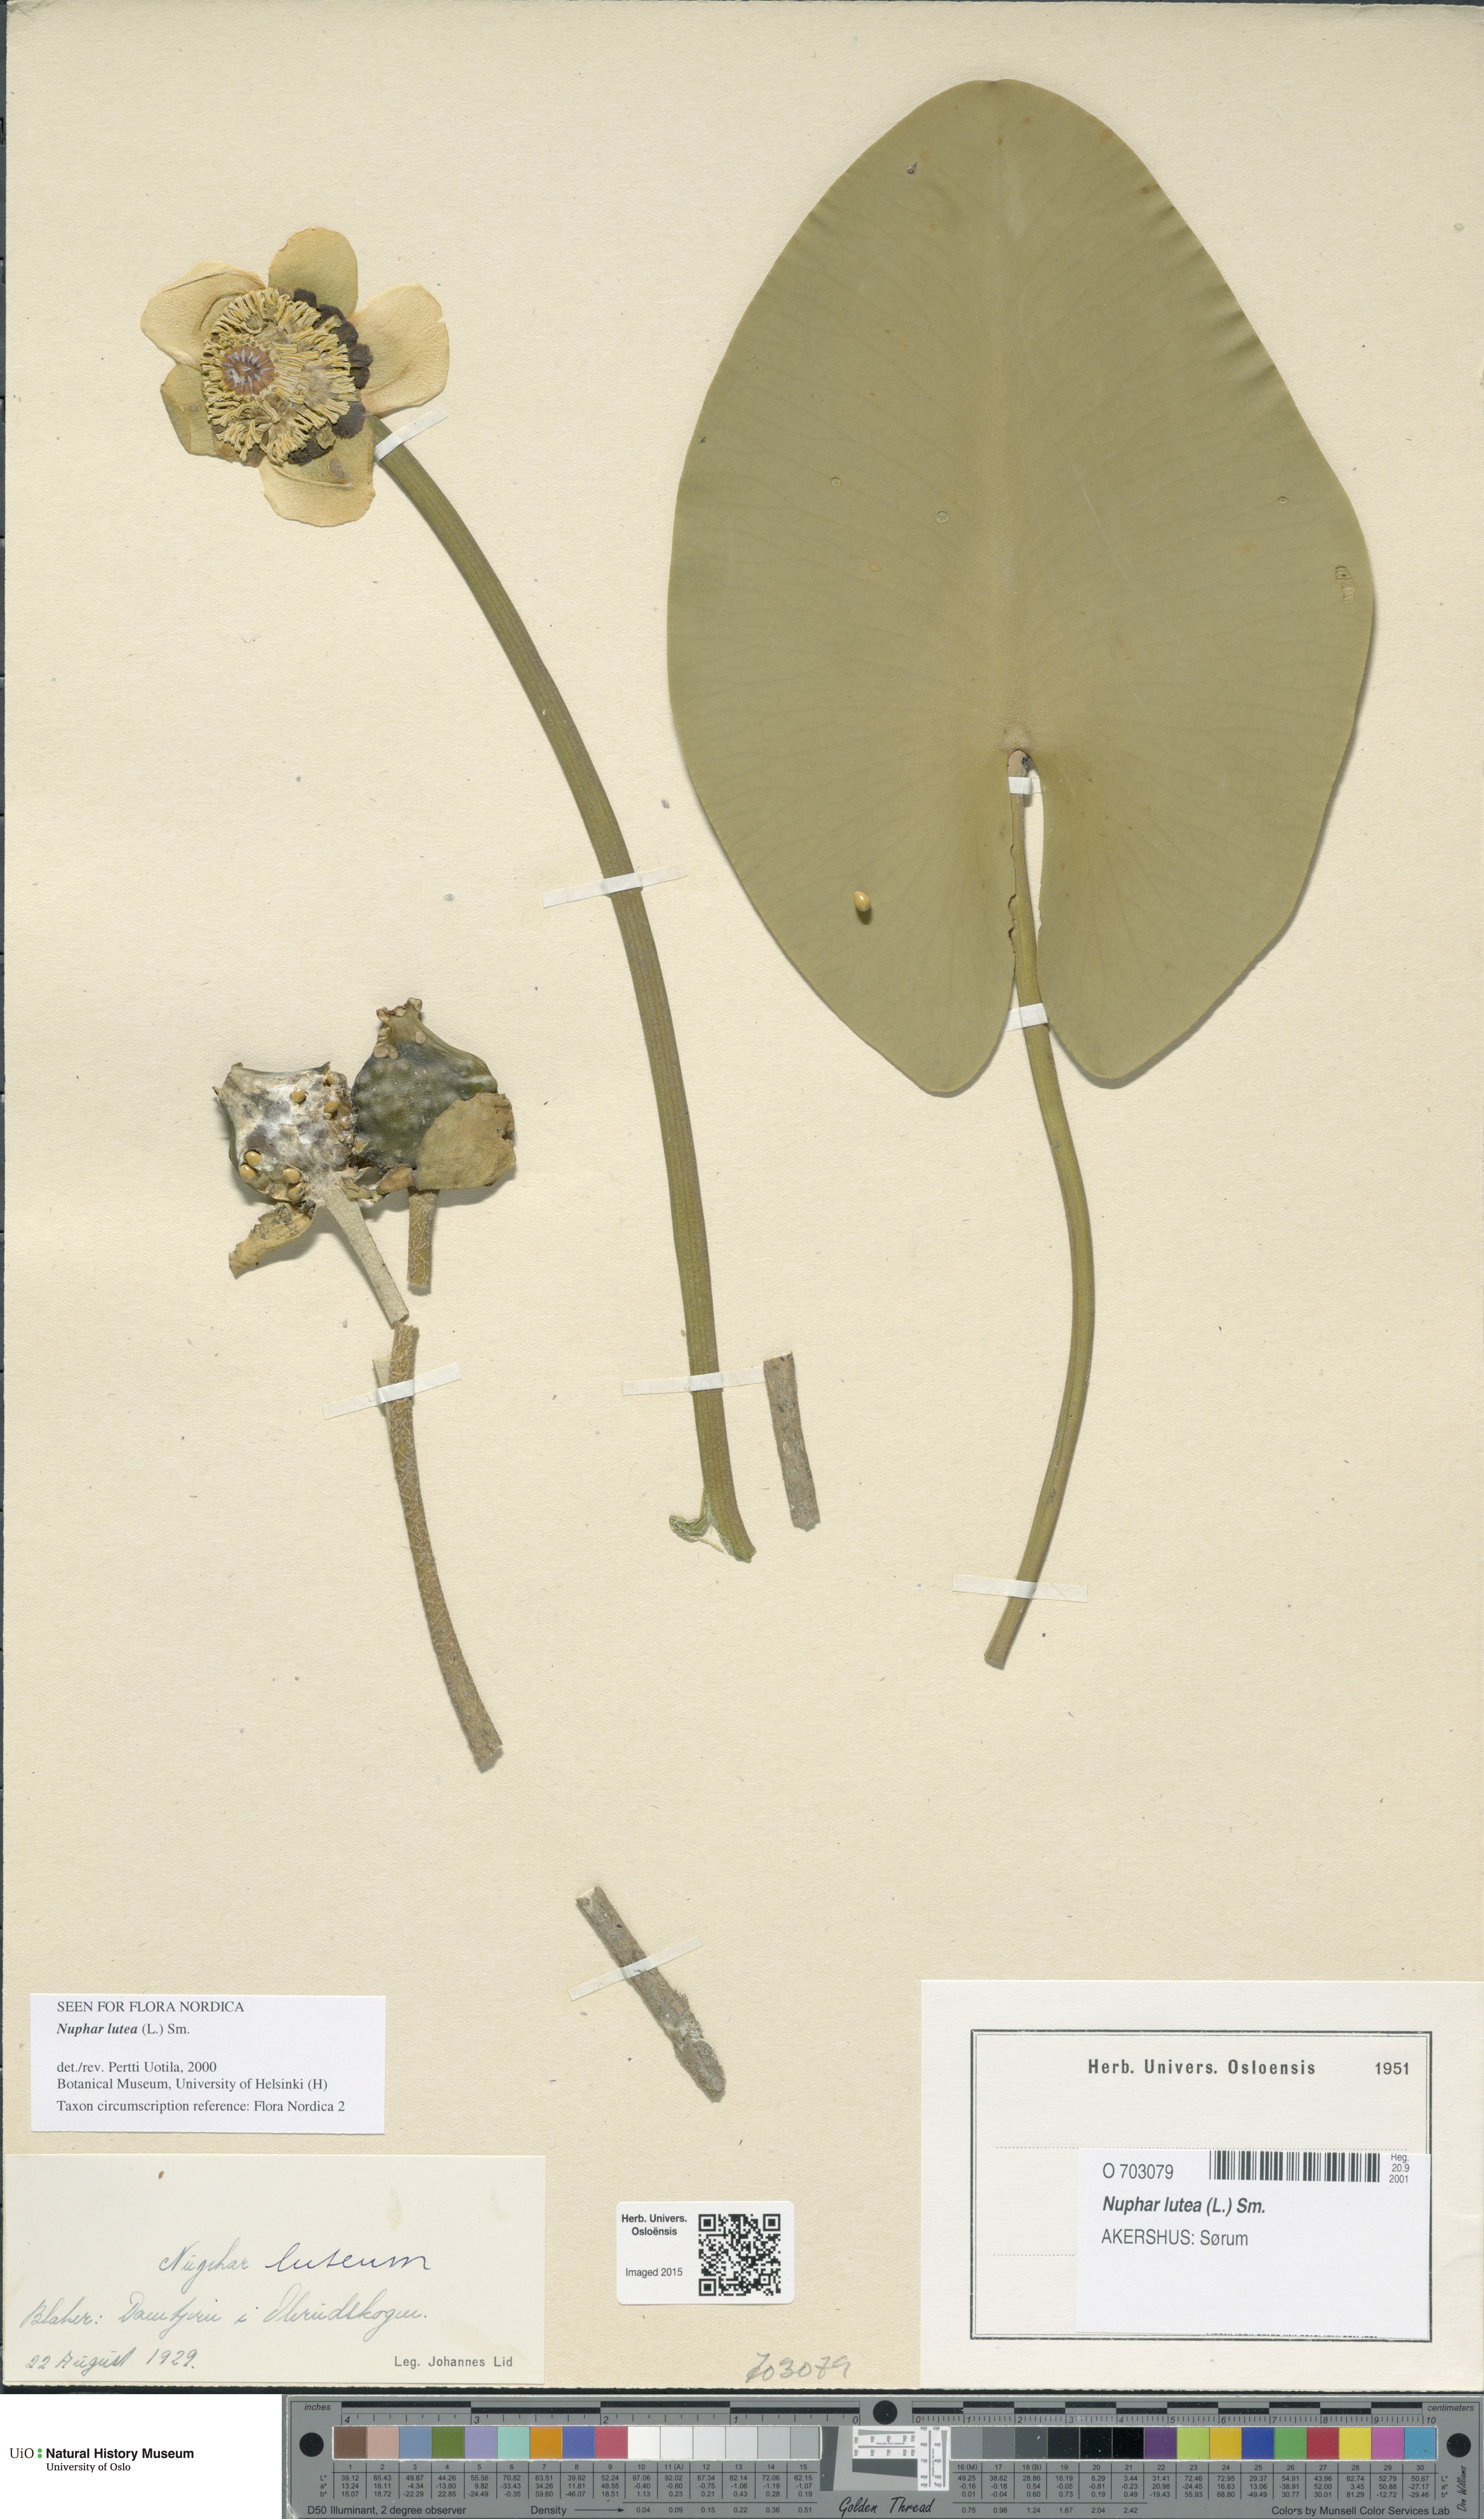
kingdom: Plantae
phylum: Tracheophyta
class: Magnoliopsida
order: Nymphaeales
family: Nymphaeaceae
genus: Nuphar
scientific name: Nuphar lutea
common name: Yellow water-lily
